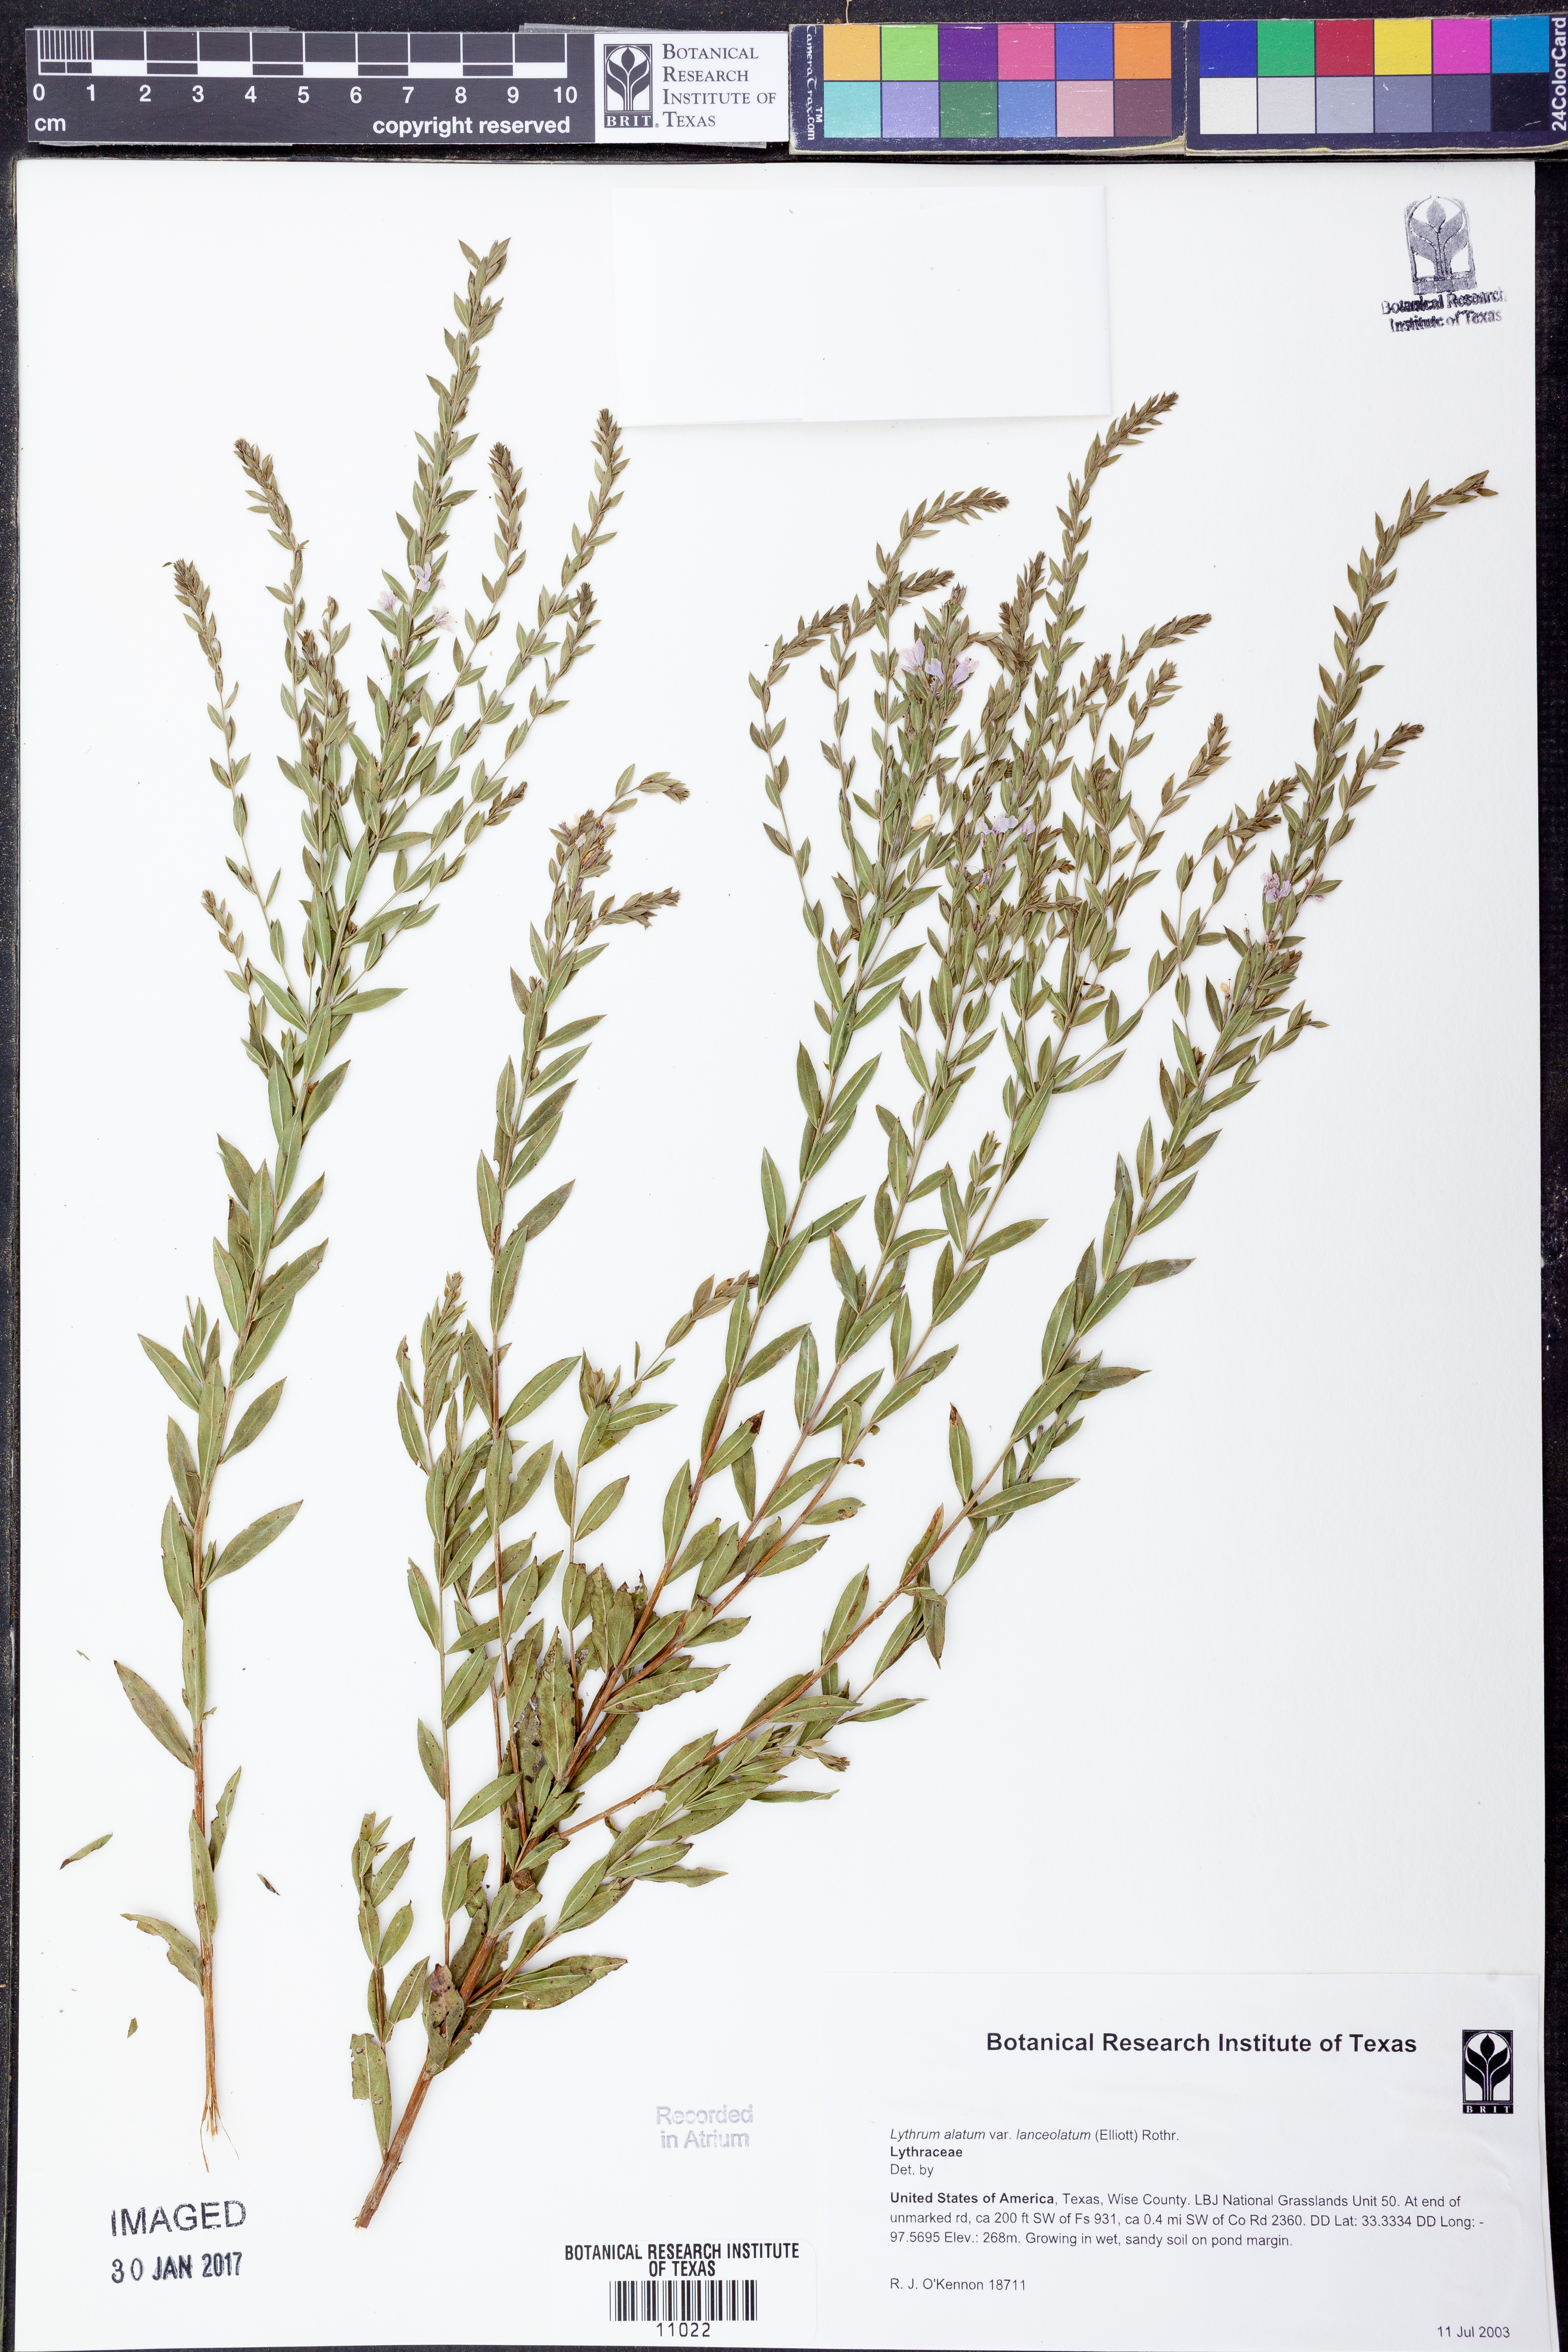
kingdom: Plantae
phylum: Tracheophyta
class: Magnoliopsida
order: Myrtales
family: Lythraceae
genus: Lythrum
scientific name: Lythrum alatum
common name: Winged loosestrife
